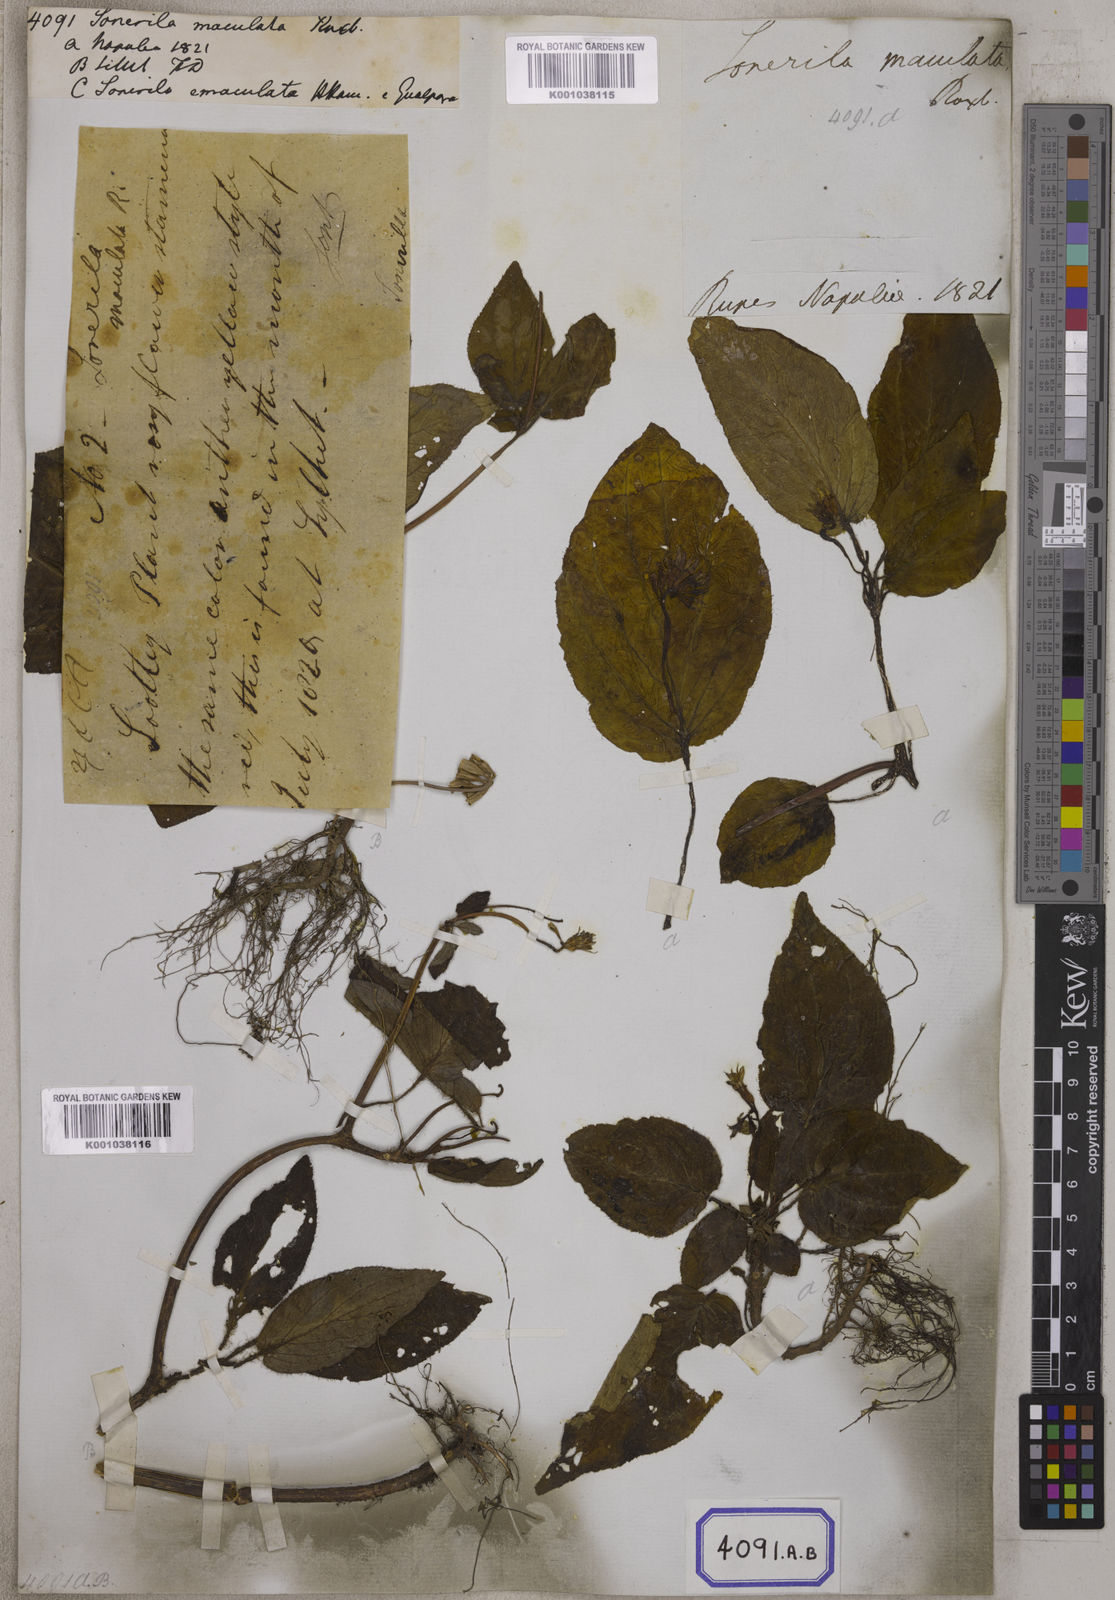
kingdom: Plantae
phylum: Tracheophyta
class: Magnoliopsida
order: Myrtales
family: Melastomataceae
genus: Sonerila
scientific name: Sonerila maculata
